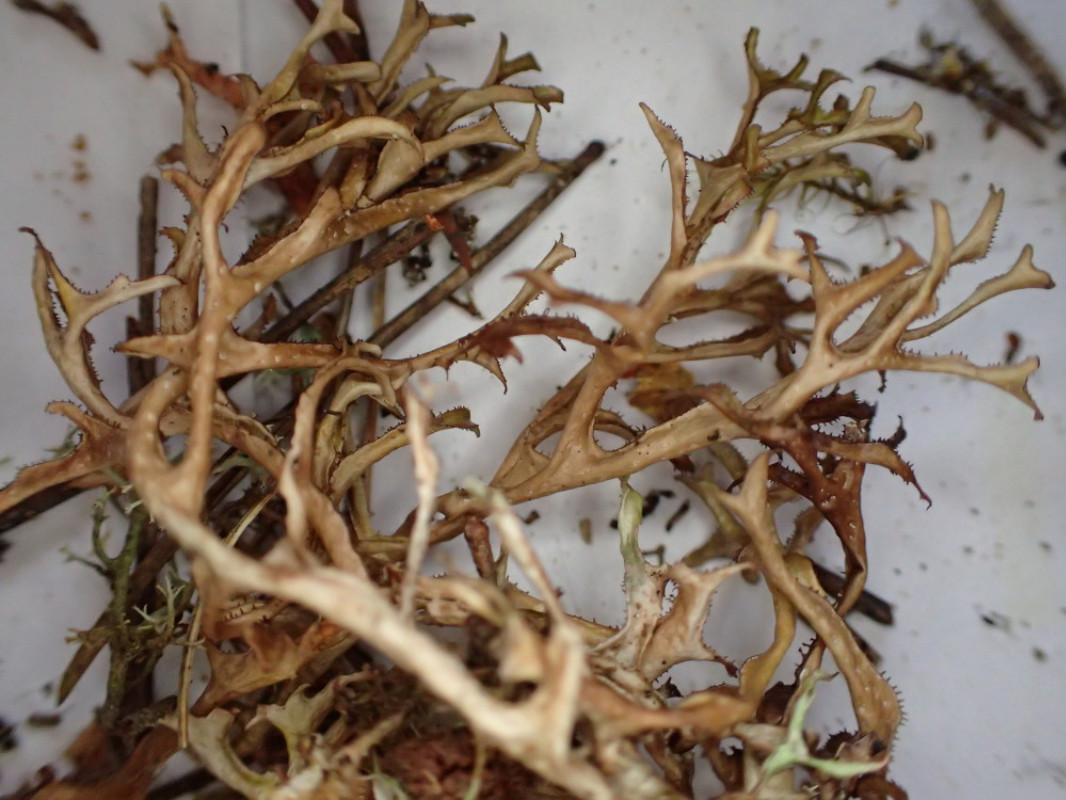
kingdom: Fungi
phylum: Ascomycota
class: Lecanoromycetes
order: Lecanorales
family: Parmeliaceae
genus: Cetraria
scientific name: Cetraria islandica
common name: islandsk kruslav
